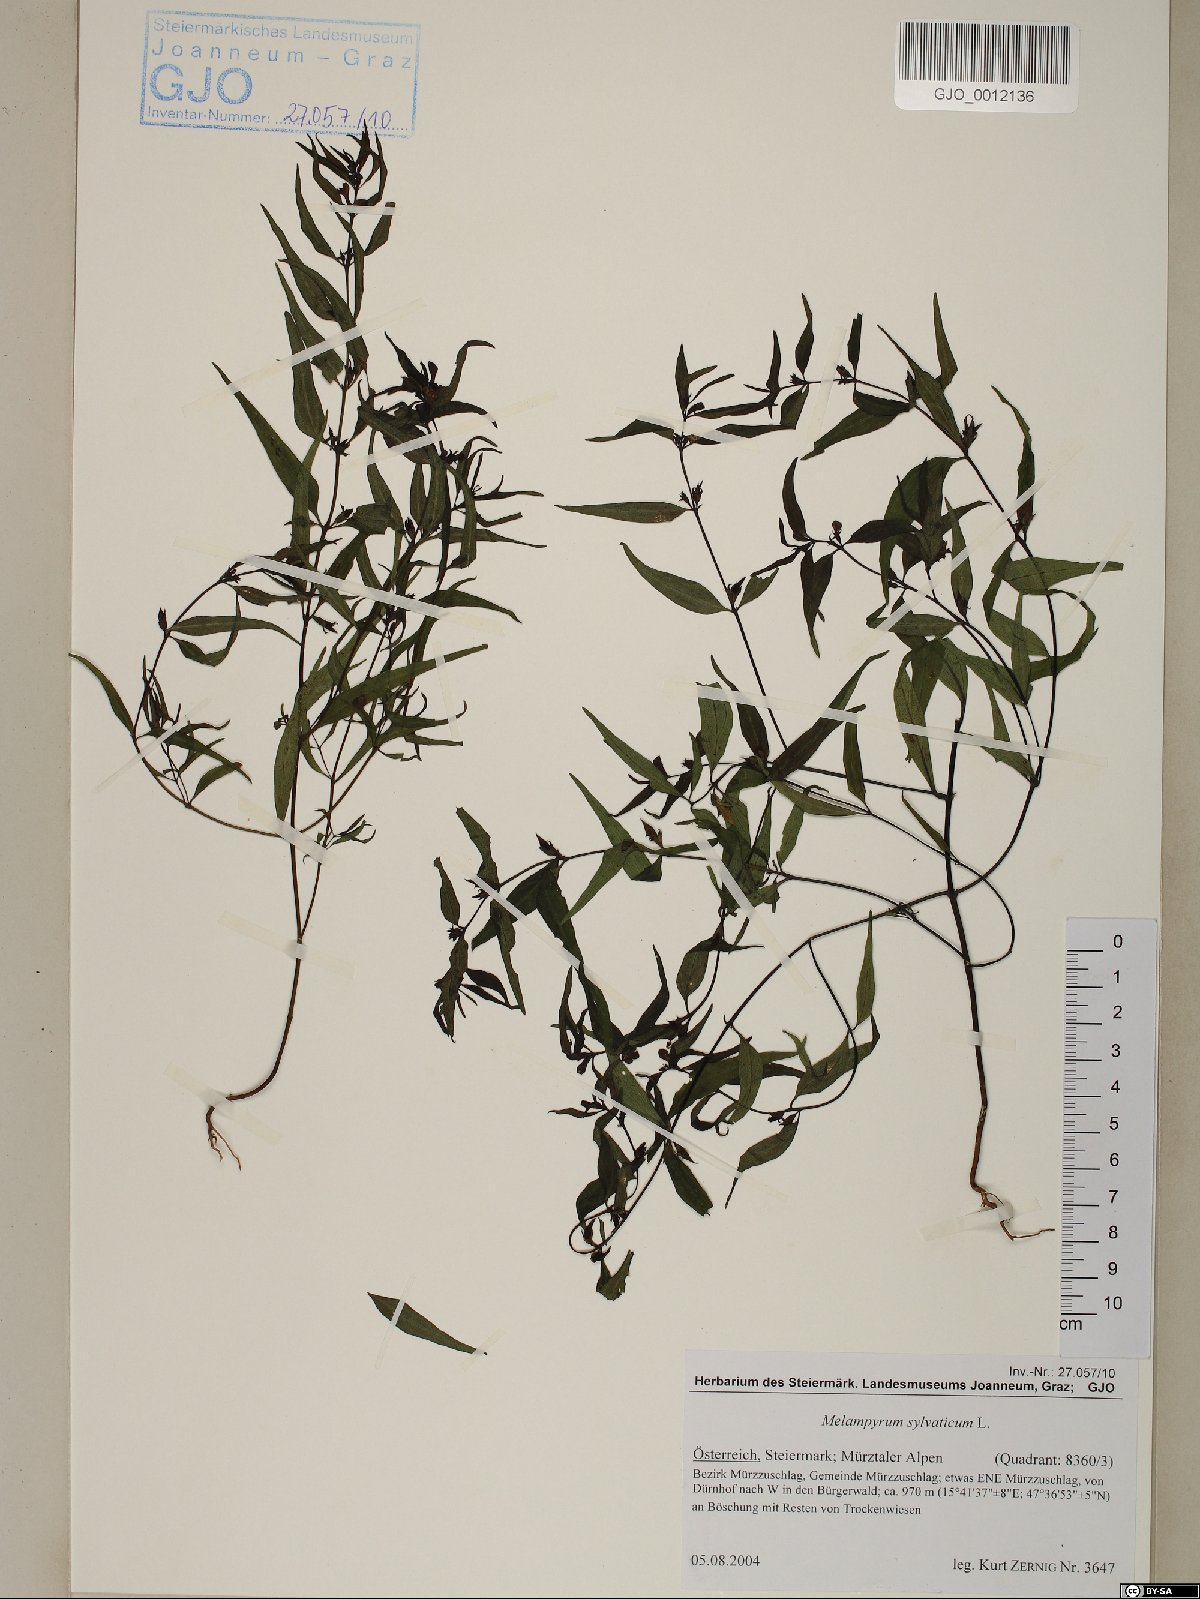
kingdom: Plantae
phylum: Tracheophyta
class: Magnoliopsida
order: Lamiales
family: Orobanchaceae
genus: Melampyrum
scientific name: Melampyrum sylvaticum
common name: Small cow-wheat
